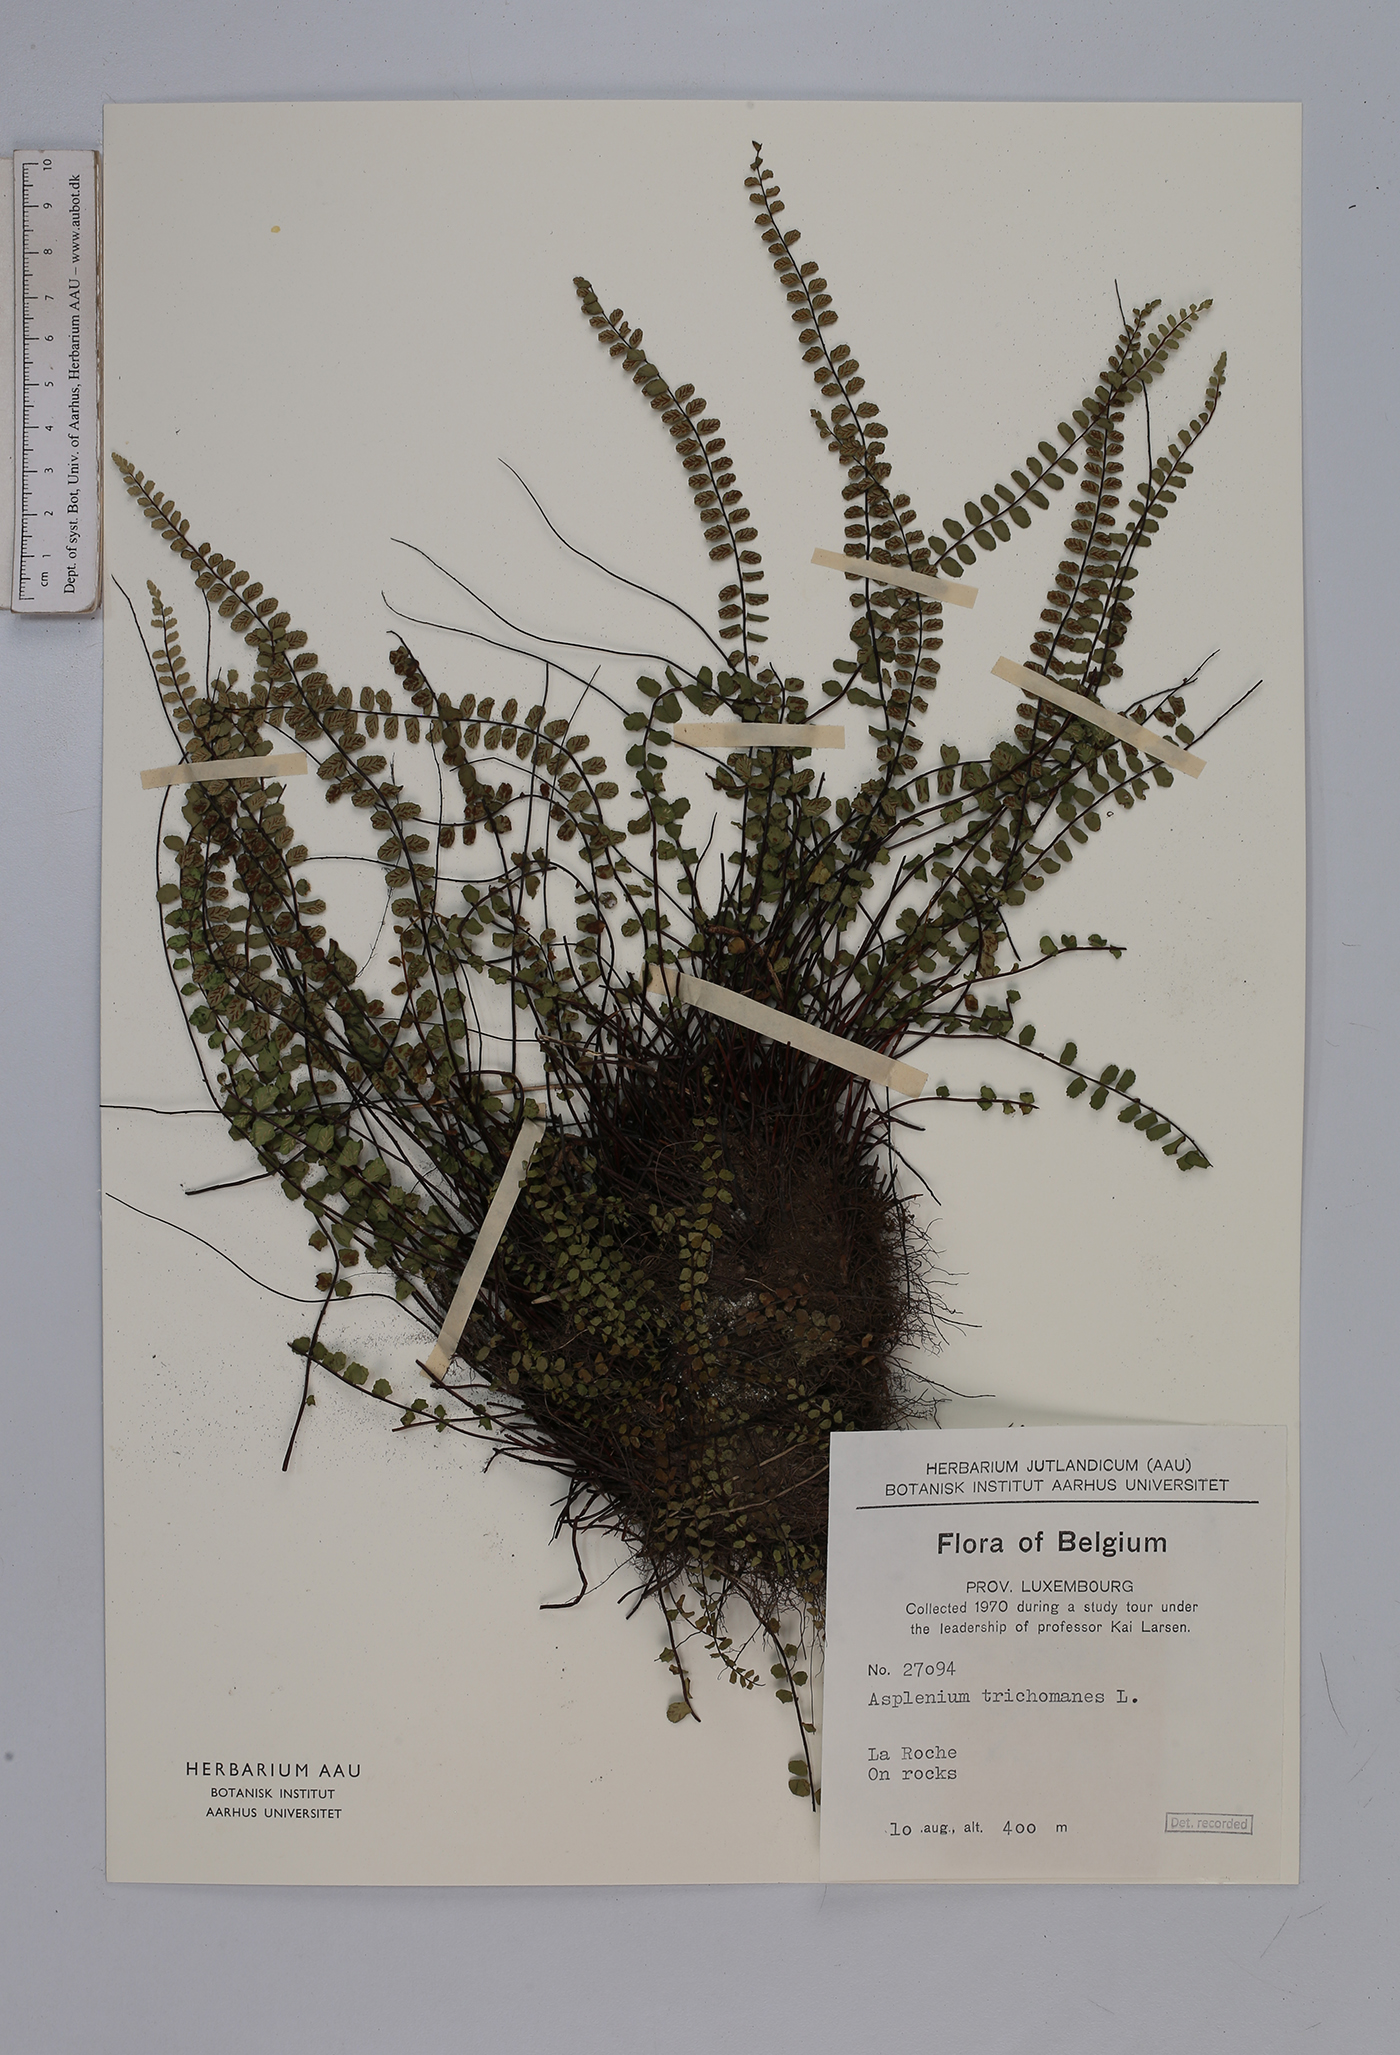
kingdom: Plantae
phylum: Tracheophyta
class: Polypodiopsida
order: Polypodiales
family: Aspleniaceae
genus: Asplenium
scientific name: Asplenium trichomanes
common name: Maidenhair spleenwort
